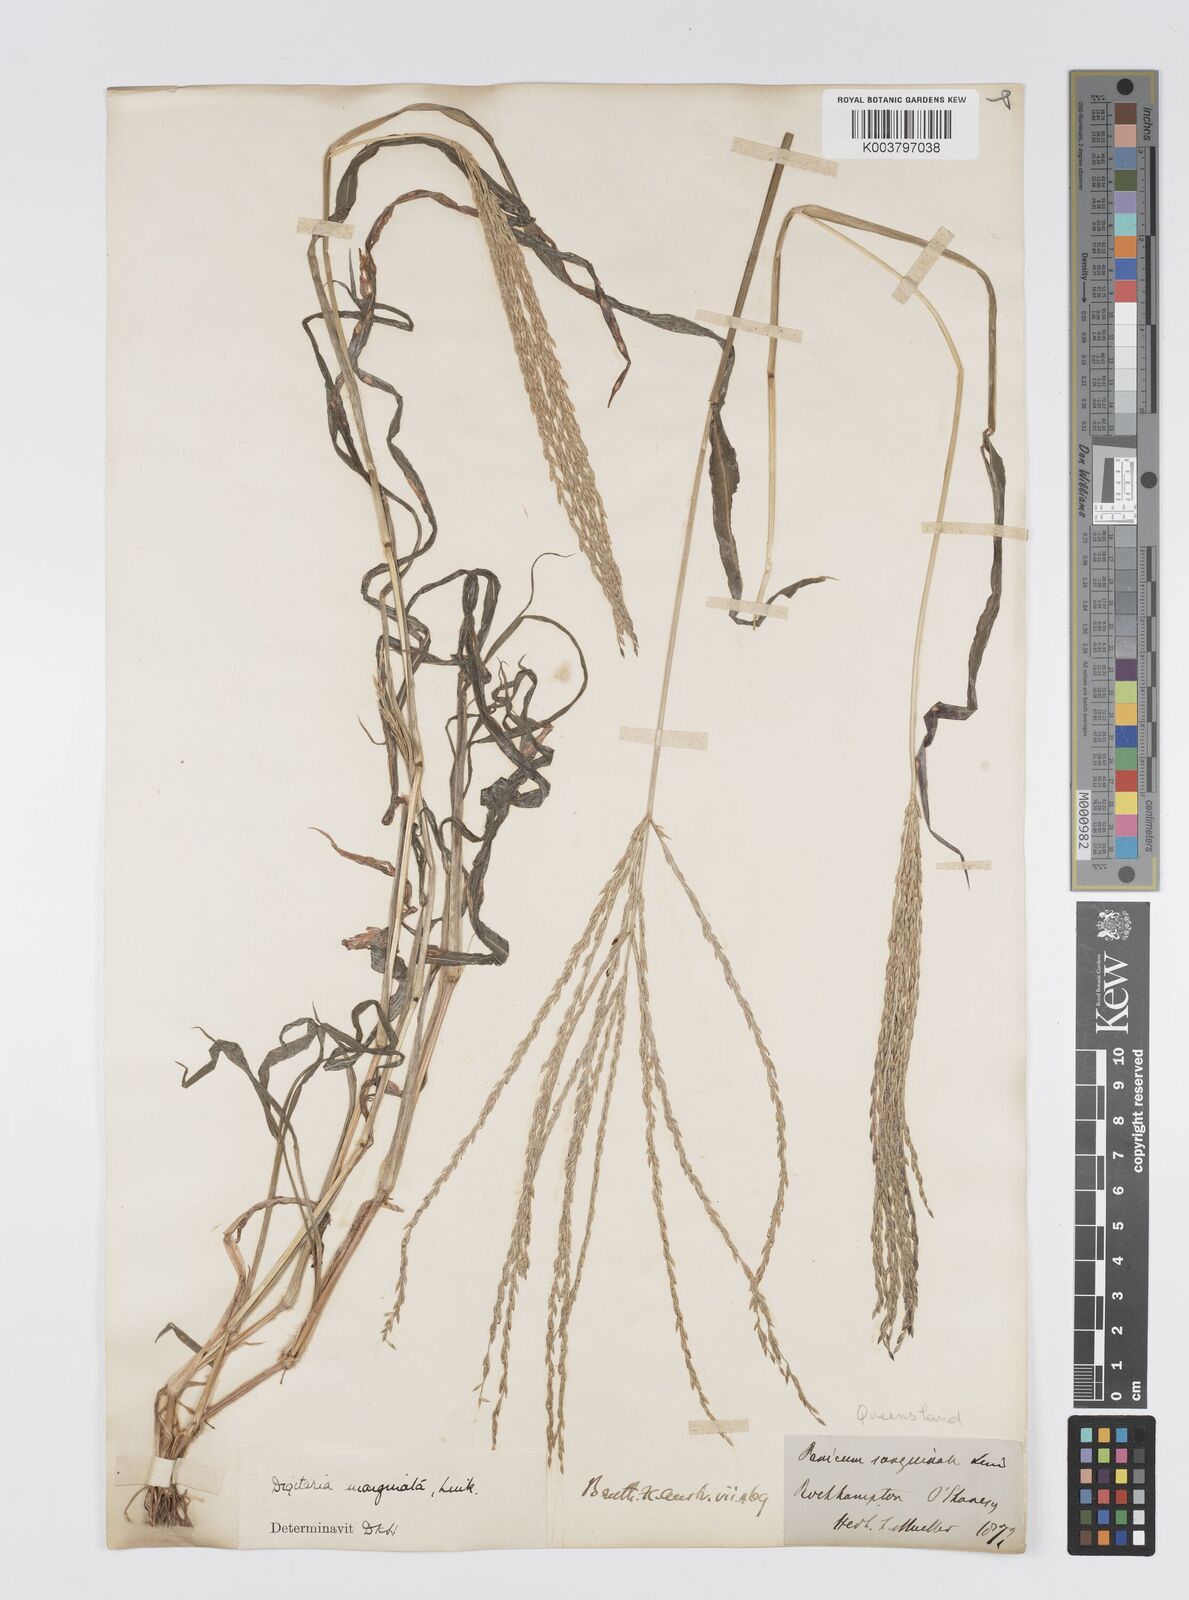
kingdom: Plantae
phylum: Tracheophyta
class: Liliopsida
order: Poales
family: Poaceae
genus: Digitaria
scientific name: Digitaria ciliaris
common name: Tropical finger-grass
